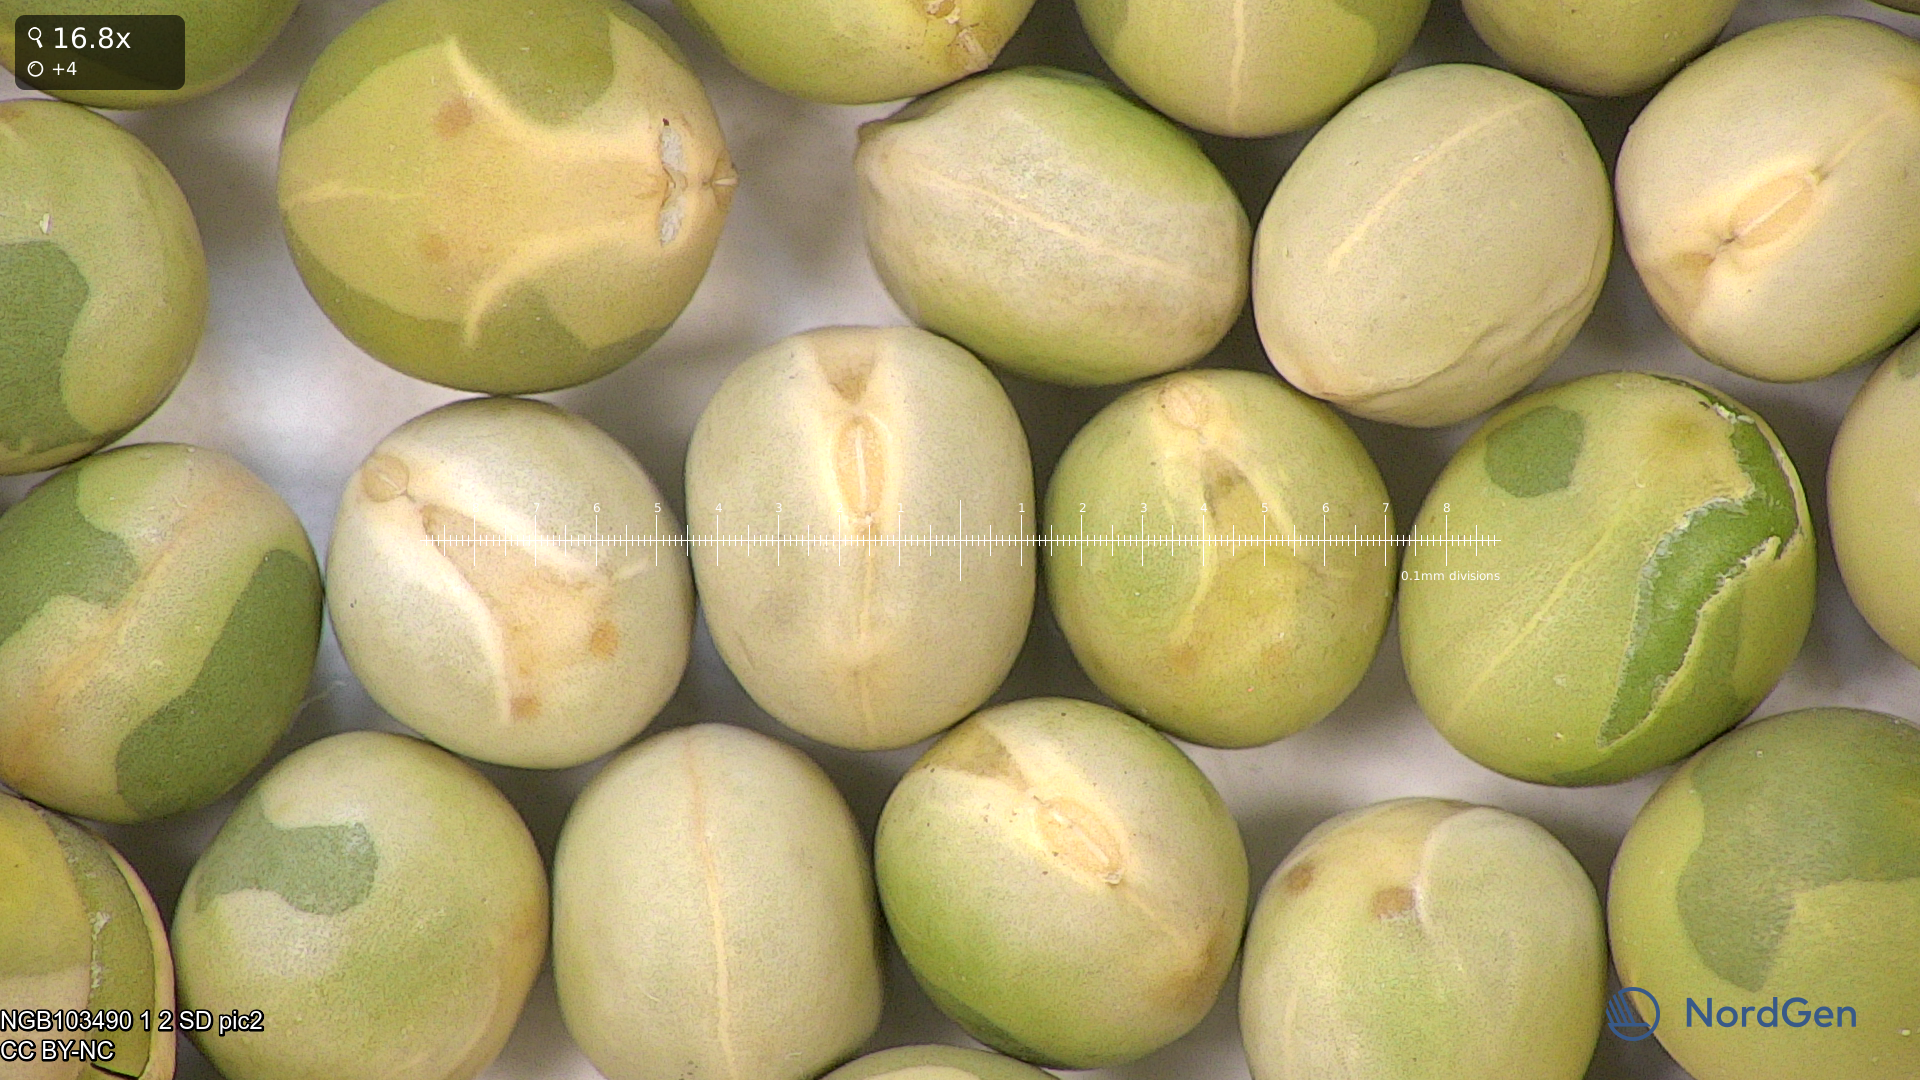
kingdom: Plantae
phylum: Tracheophyta
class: Magnoliopsida
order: Fabales
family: Fabaceae
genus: Lathyrus
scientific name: Lathyrus oleraceus
